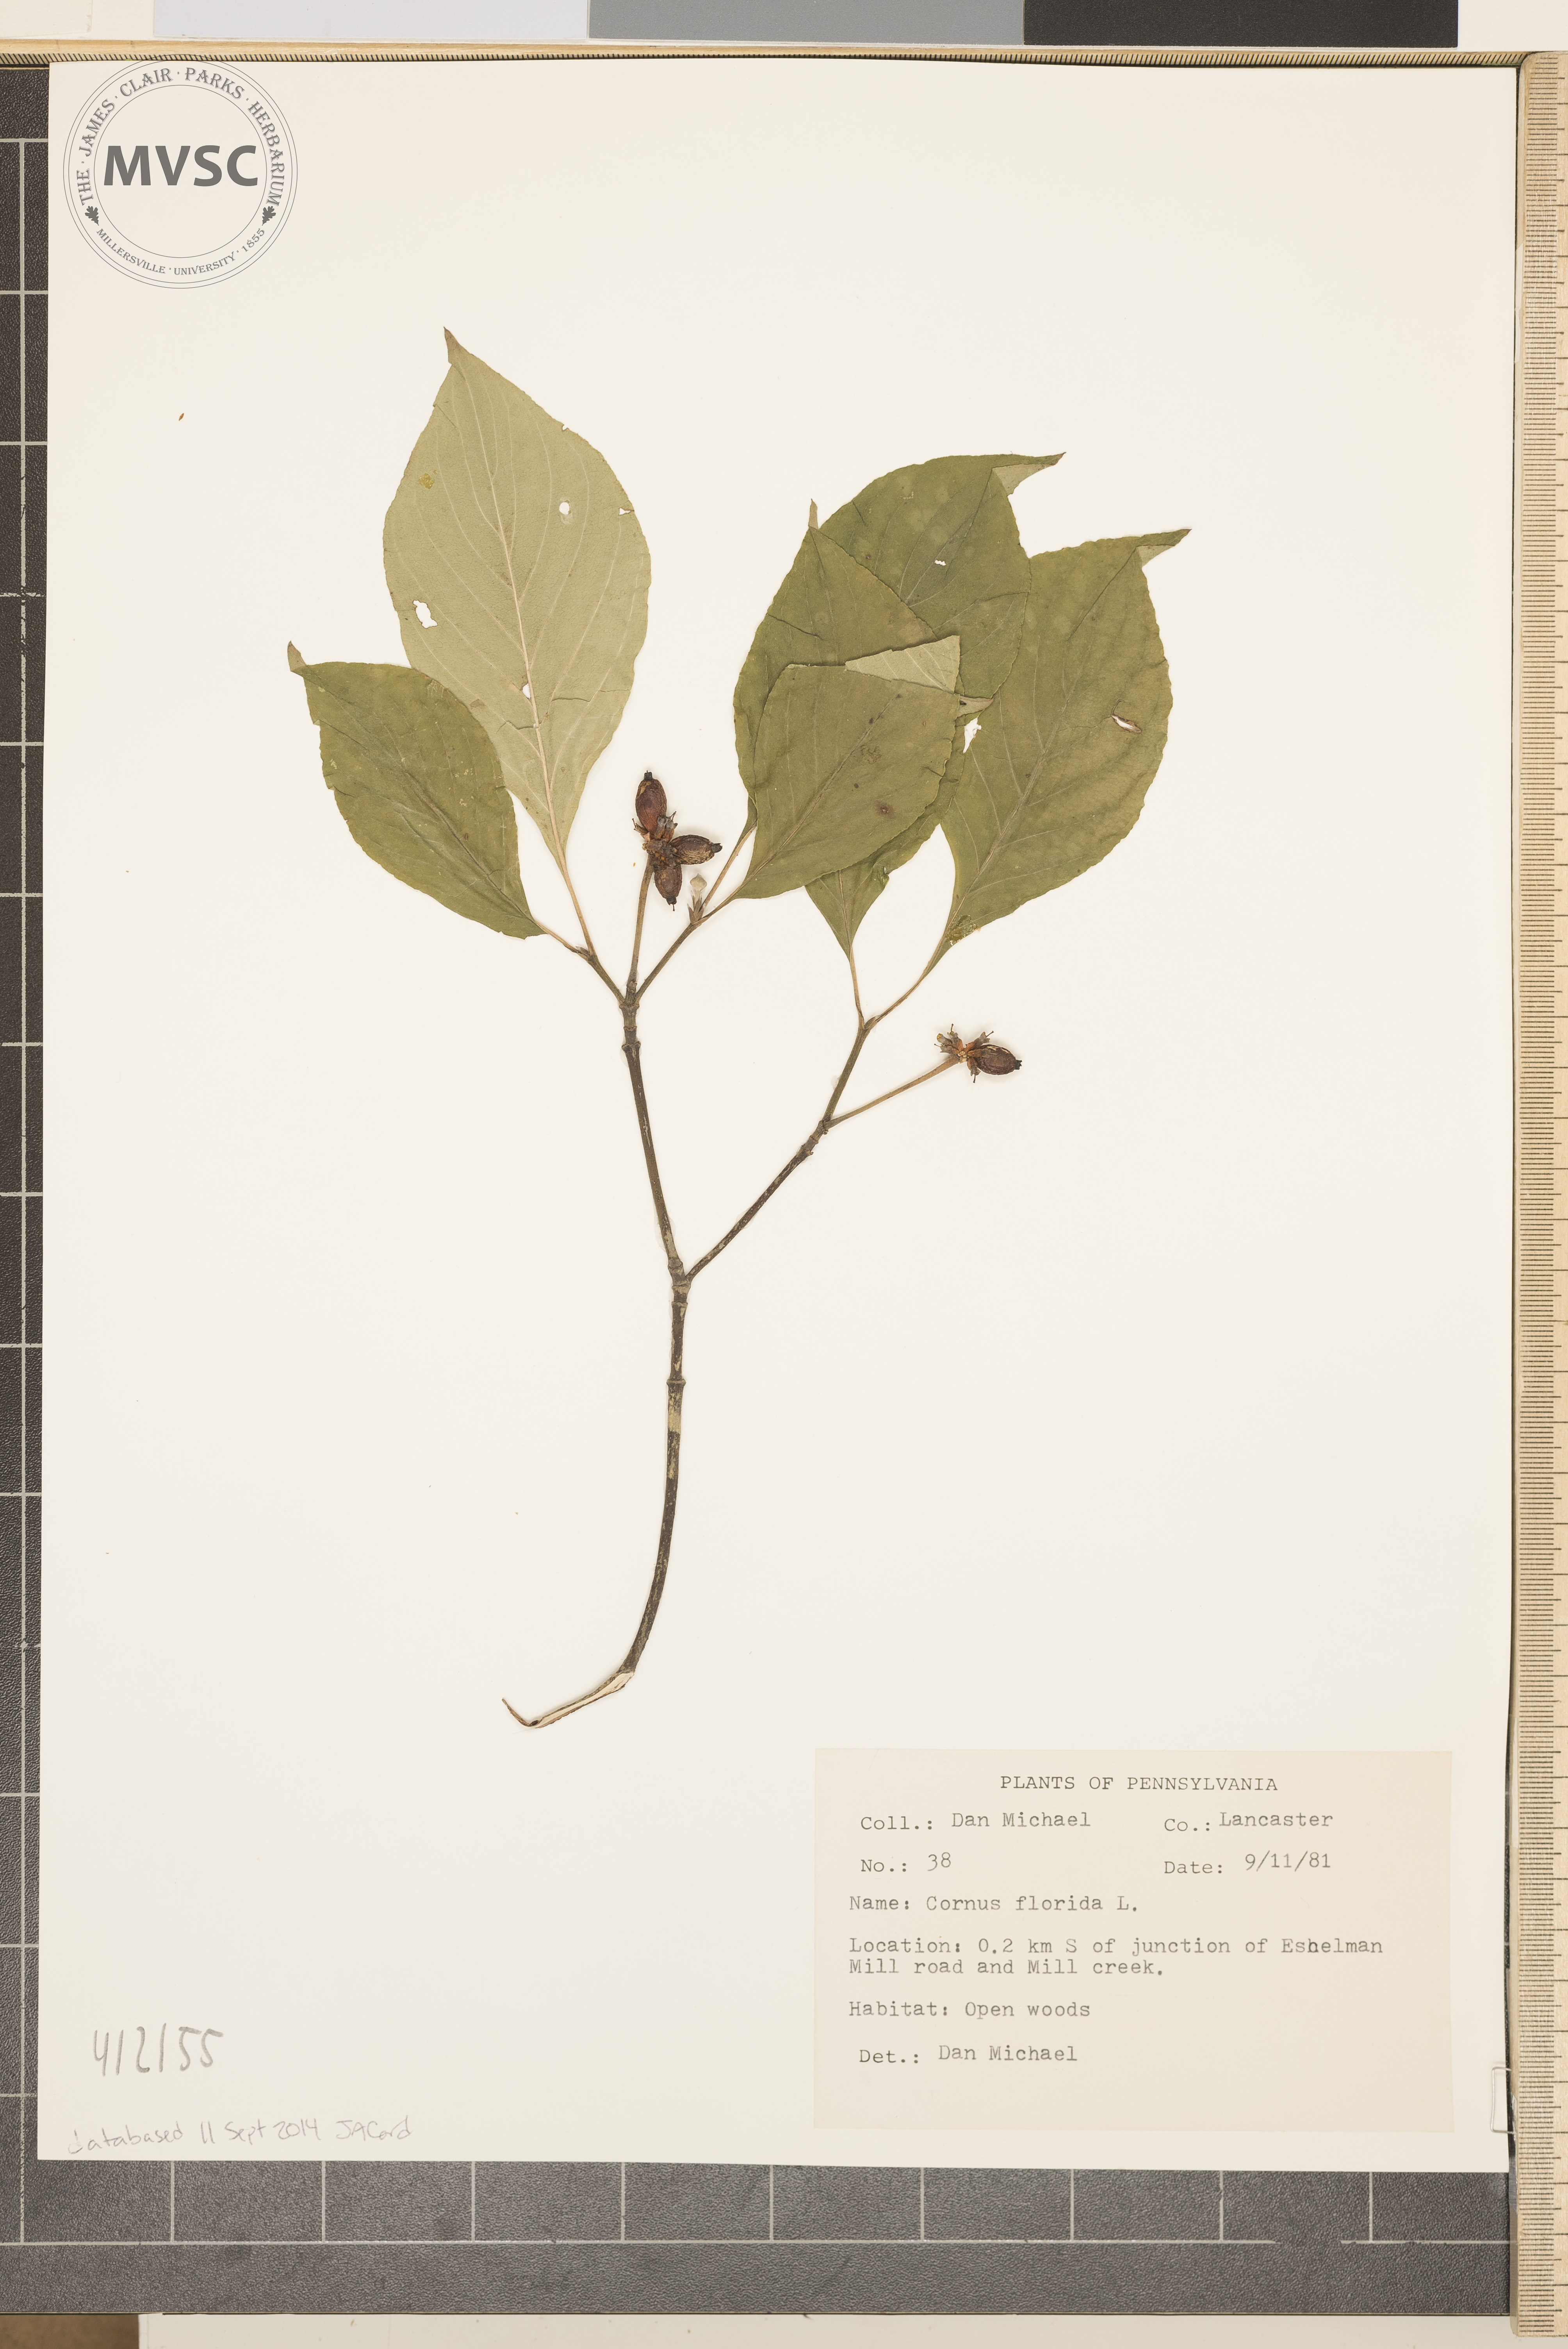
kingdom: Plantae
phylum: Tracheophyta
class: Magnoliopsida
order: Cornales
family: Cornaceae
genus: Cornus
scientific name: Cornus florida
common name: Flowering dogwood
